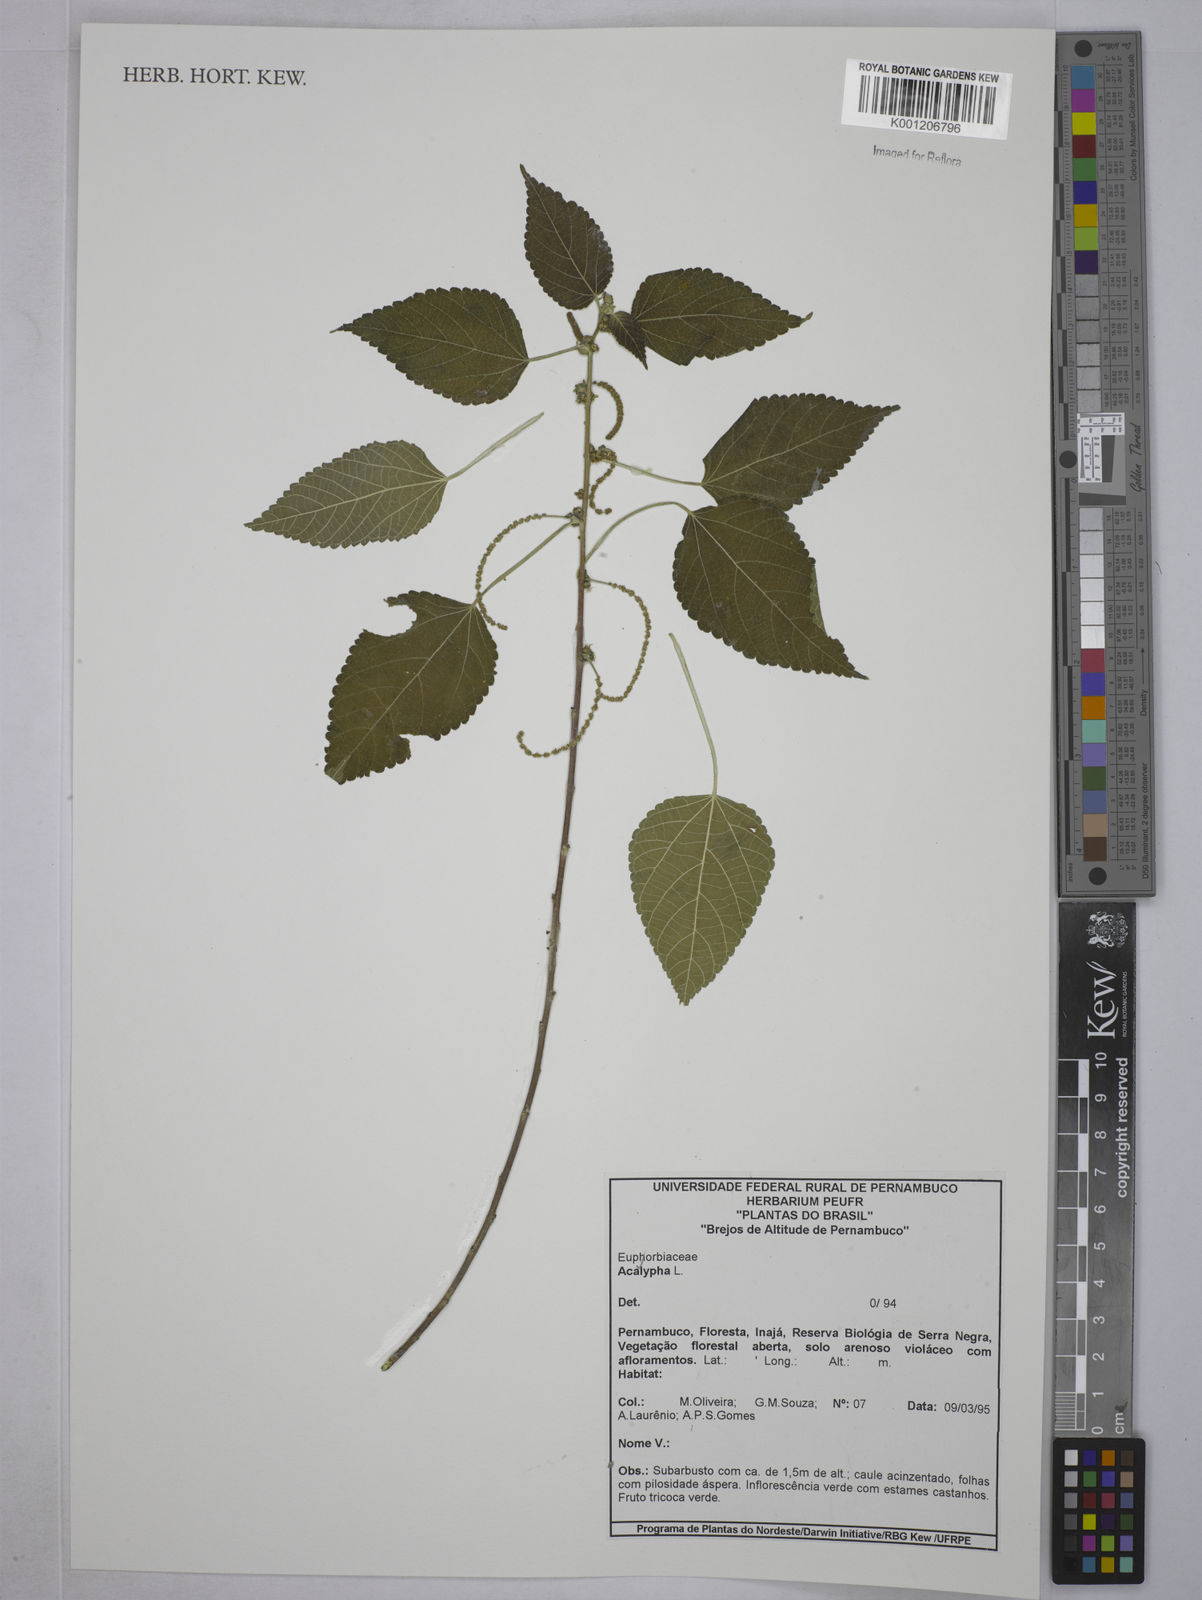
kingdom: Plantae
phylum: Tracheophyta
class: Magnoliopsida
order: Malpighiales
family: Euphorbiaceae
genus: Acalypha
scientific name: Acalypha
